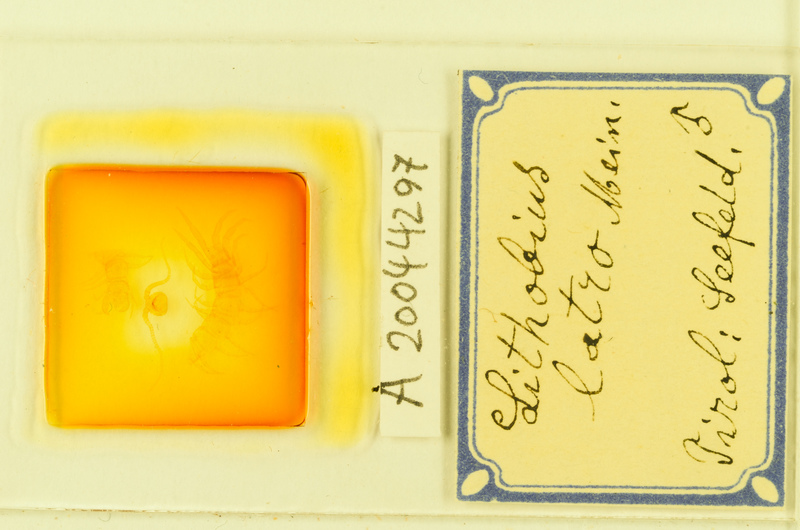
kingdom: Animalia
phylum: Arthropoda
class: Chilopoda
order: Lithobiomorpha
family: Lithobiidae
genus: Lithobius
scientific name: Lithobius latro
